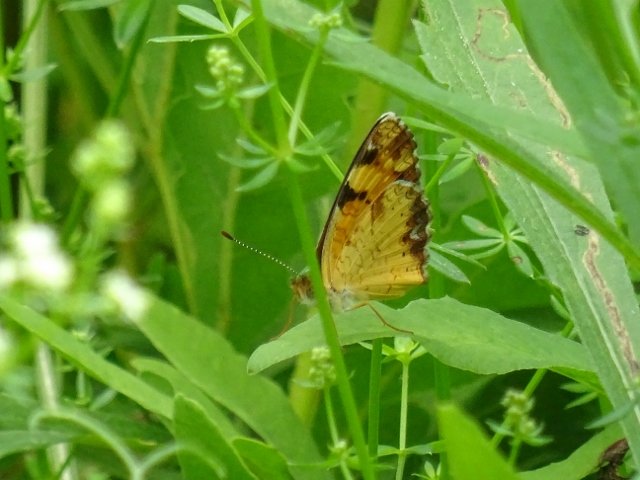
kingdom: Animalia
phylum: Arthropoda
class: Insecta
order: Lepidoptera
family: Nymphalidae
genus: Phyciodes
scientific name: Phyciodes tharos
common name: Pearl Crescent
